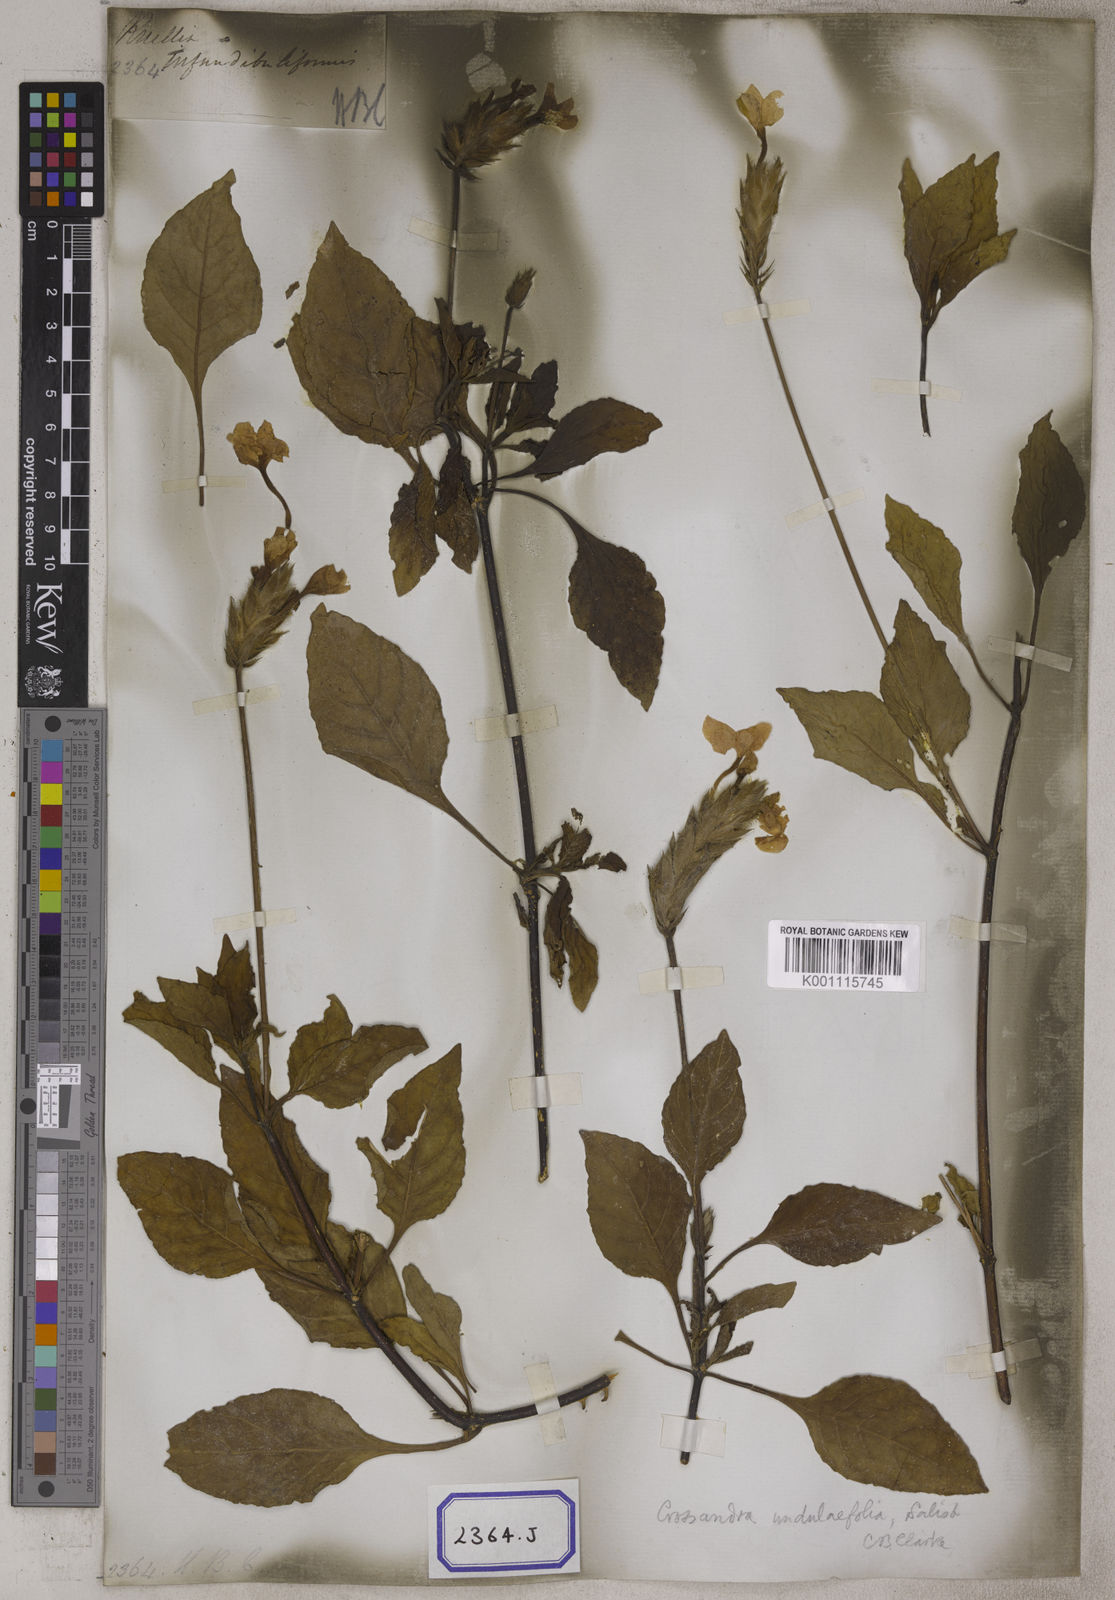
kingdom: Plantae
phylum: Tracheophyta
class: Magnoliopsida
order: Lamiales
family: Acanthaceae
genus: Crossandra
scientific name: Crossandra infundibuliformis
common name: Firecracker-flower
